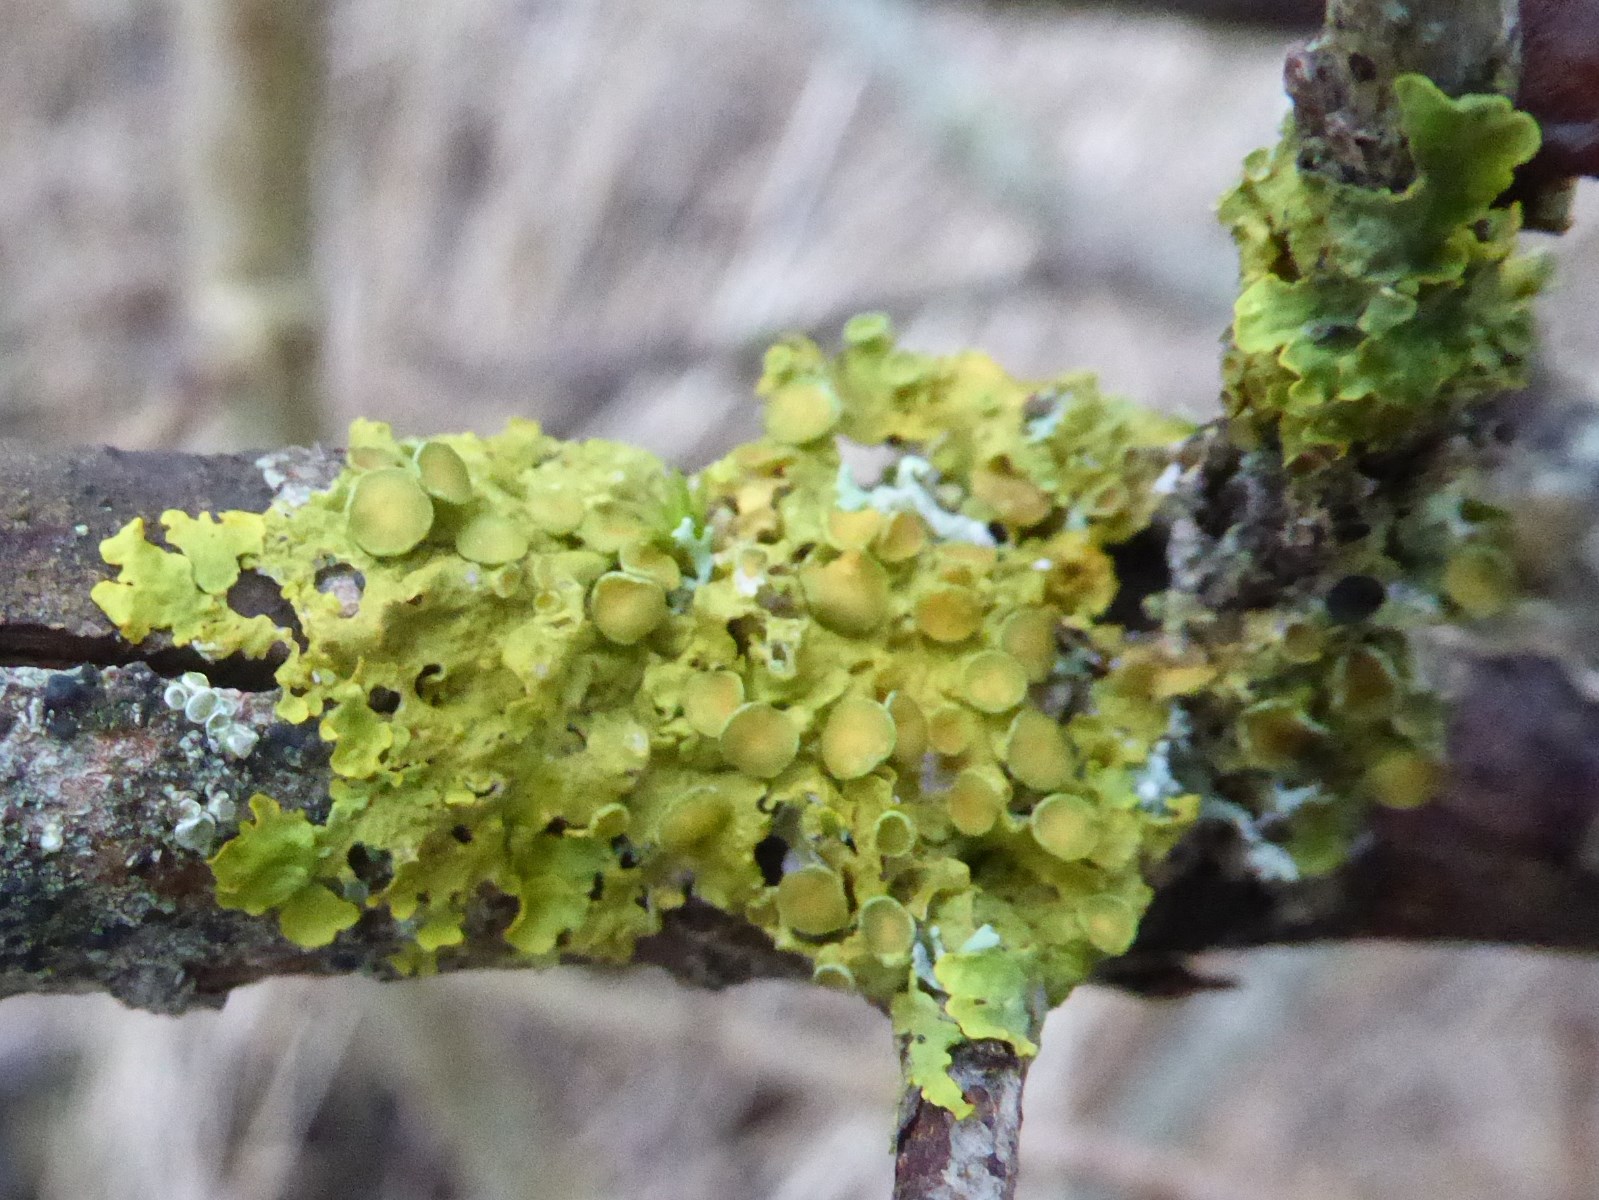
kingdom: Fungi
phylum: Ascomycota
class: Lecanoromycetes
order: Teloschistales
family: Teloschistaceae
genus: Xanthoria
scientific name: Xanthoria parietina
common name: almindelig væggelav
